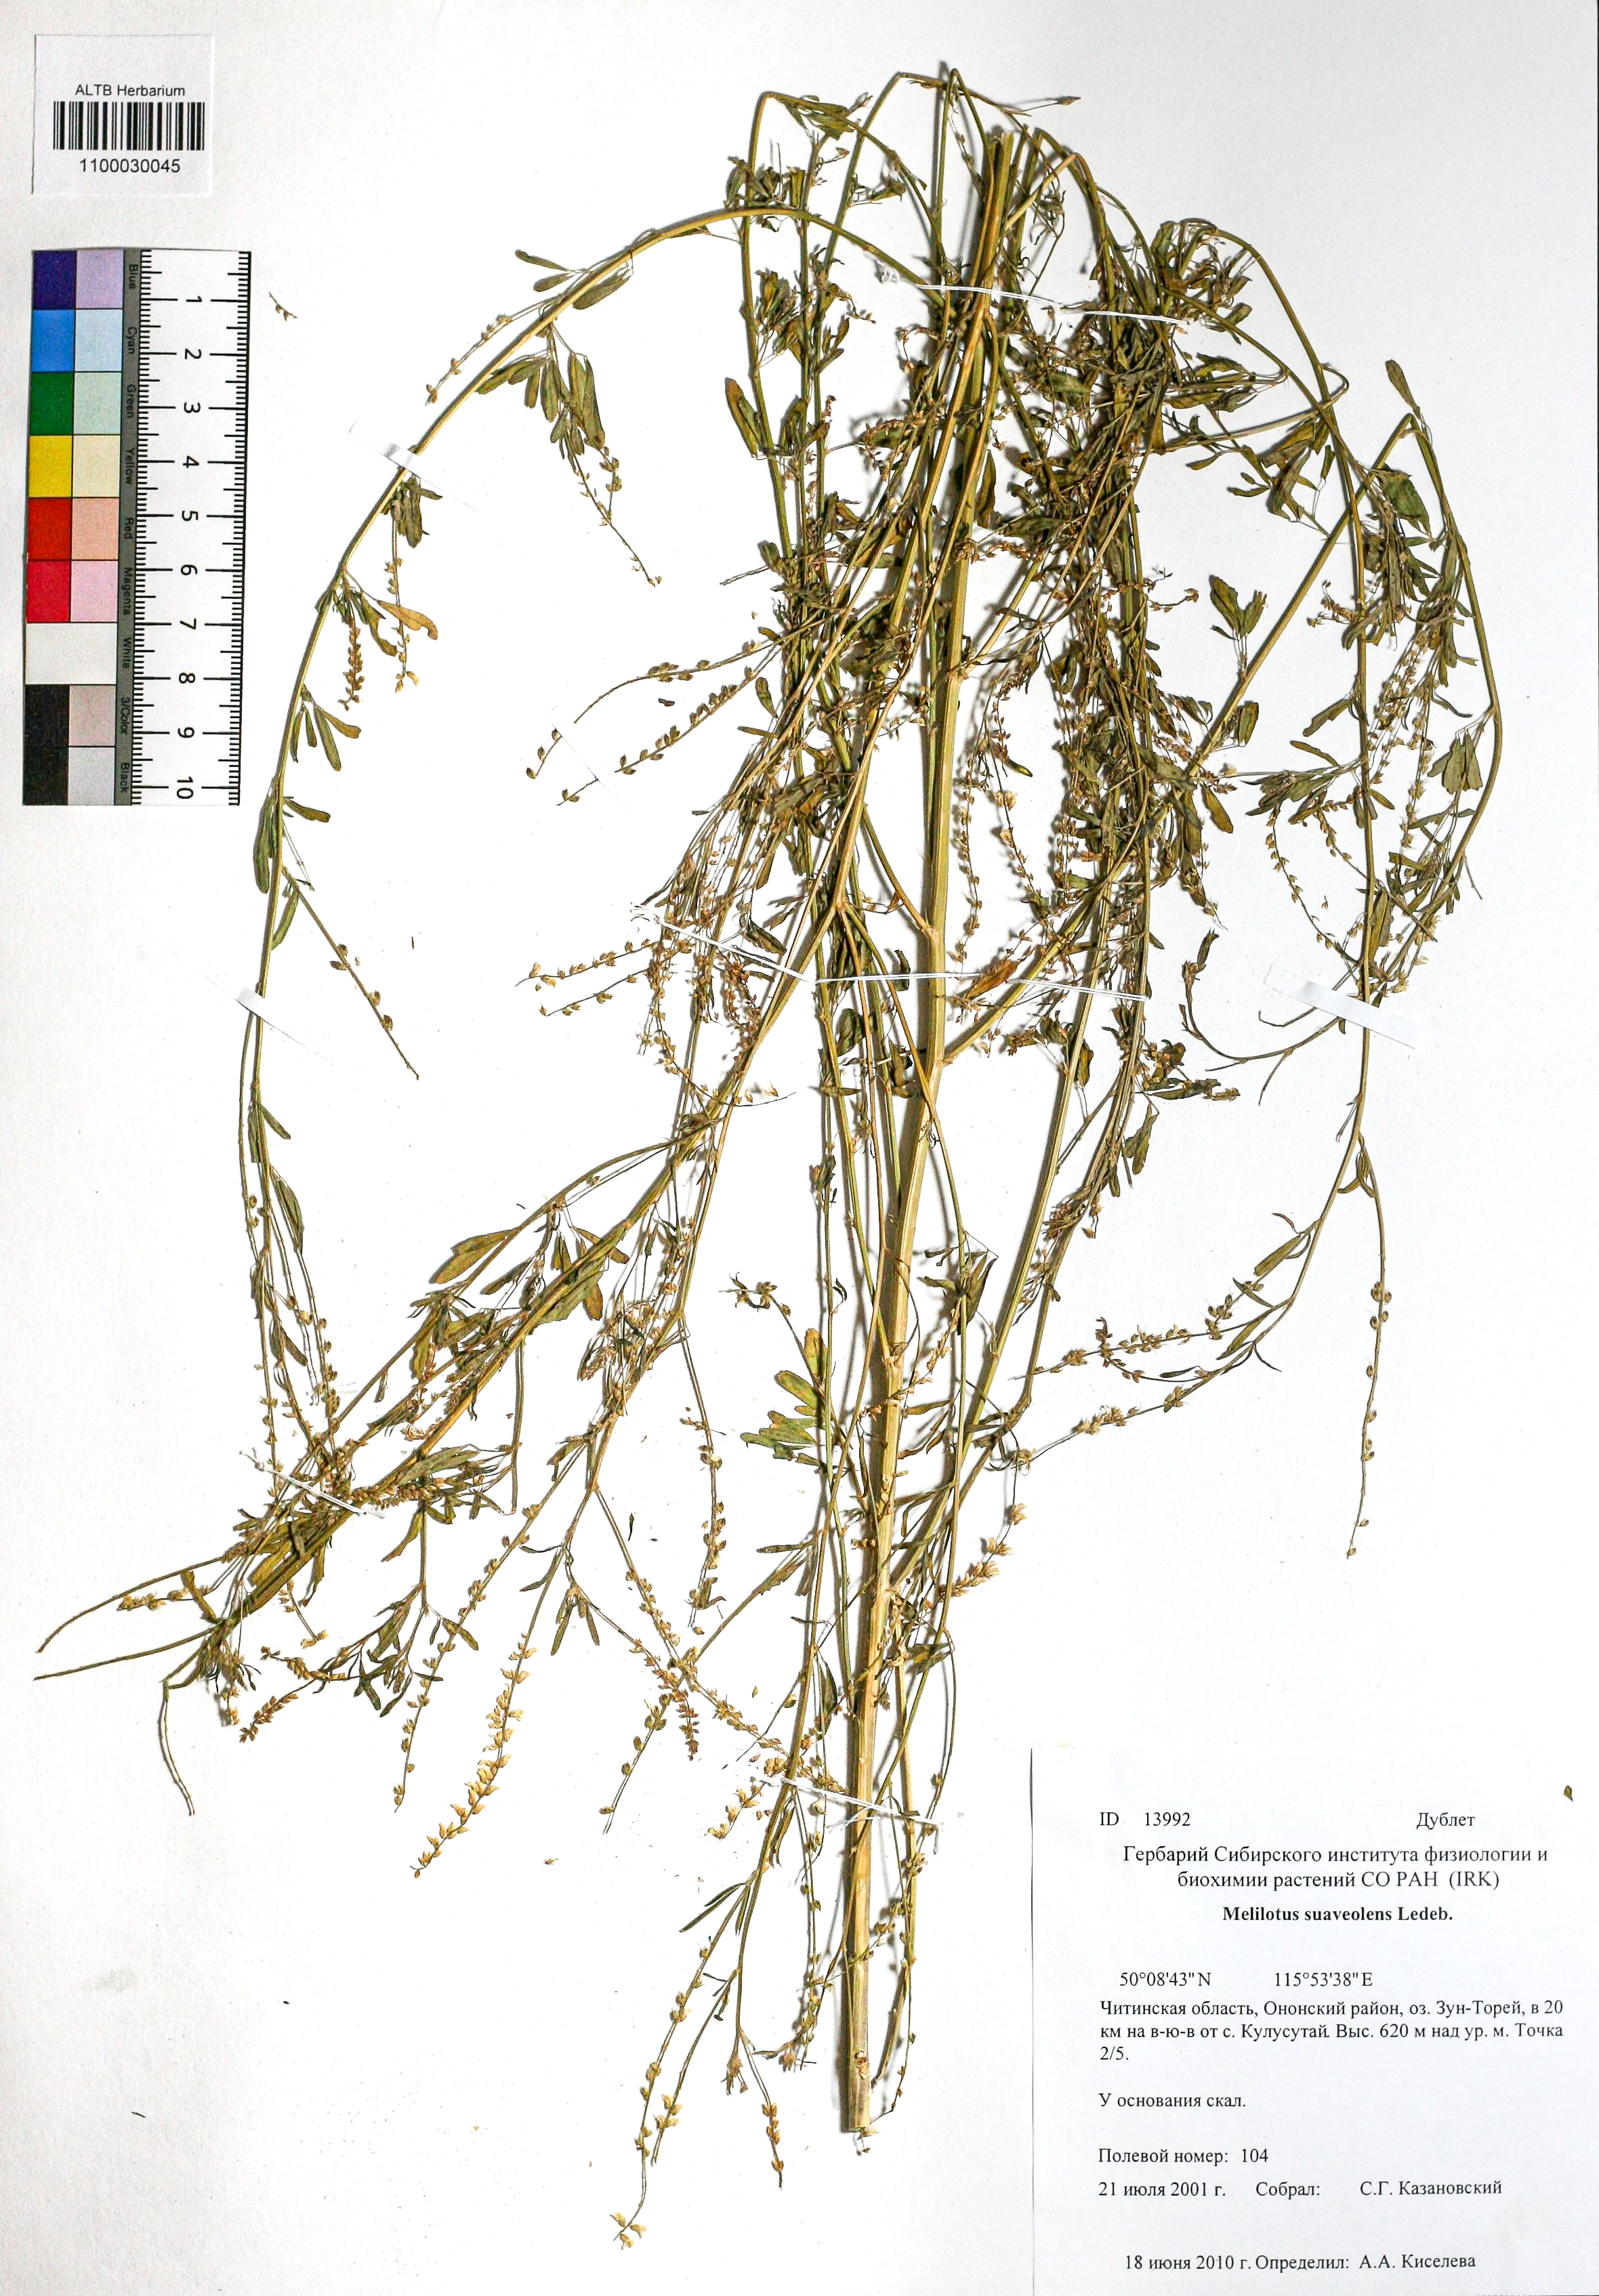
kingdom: Plantae
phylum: Tracheophyta
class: Magnoliopsida
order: Fabales
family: Fabaceae
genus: Melilotus
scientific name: Melilotus suaveolens
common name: Daghestan sweet-clover
